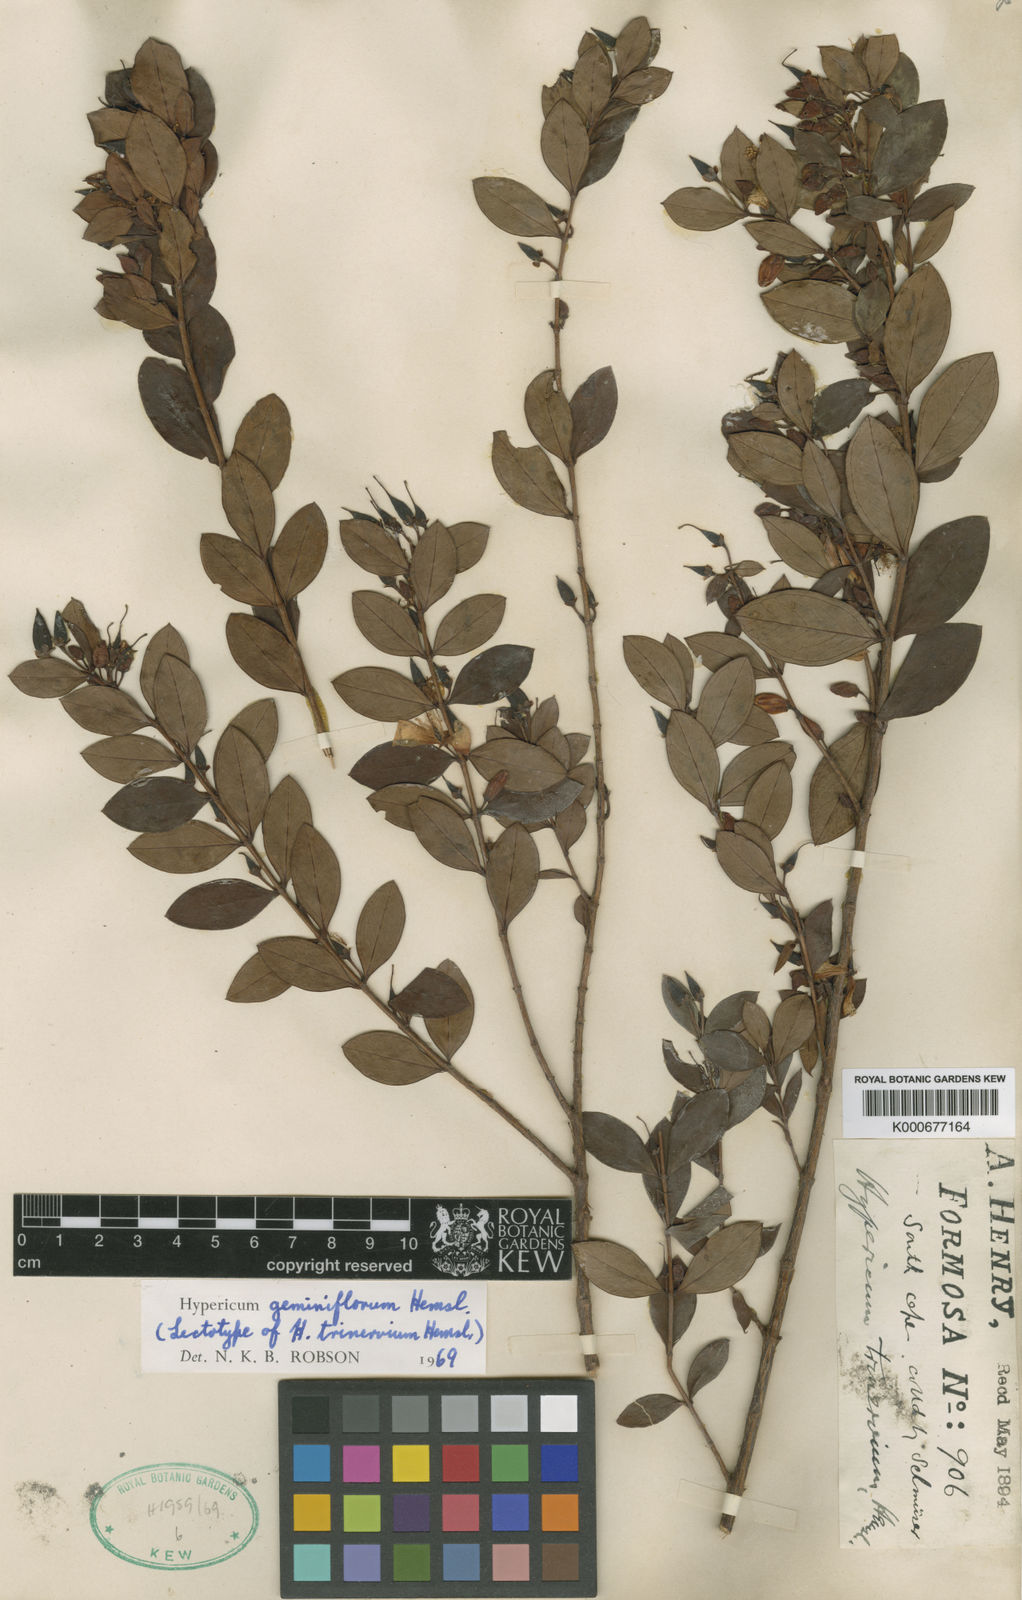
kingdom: Plantae
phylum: Tracheophyta
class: Magnoliopsida
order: Malpighiales
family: Hypericaceae
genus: Hypericum
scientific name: Hypericum geminiflorum
